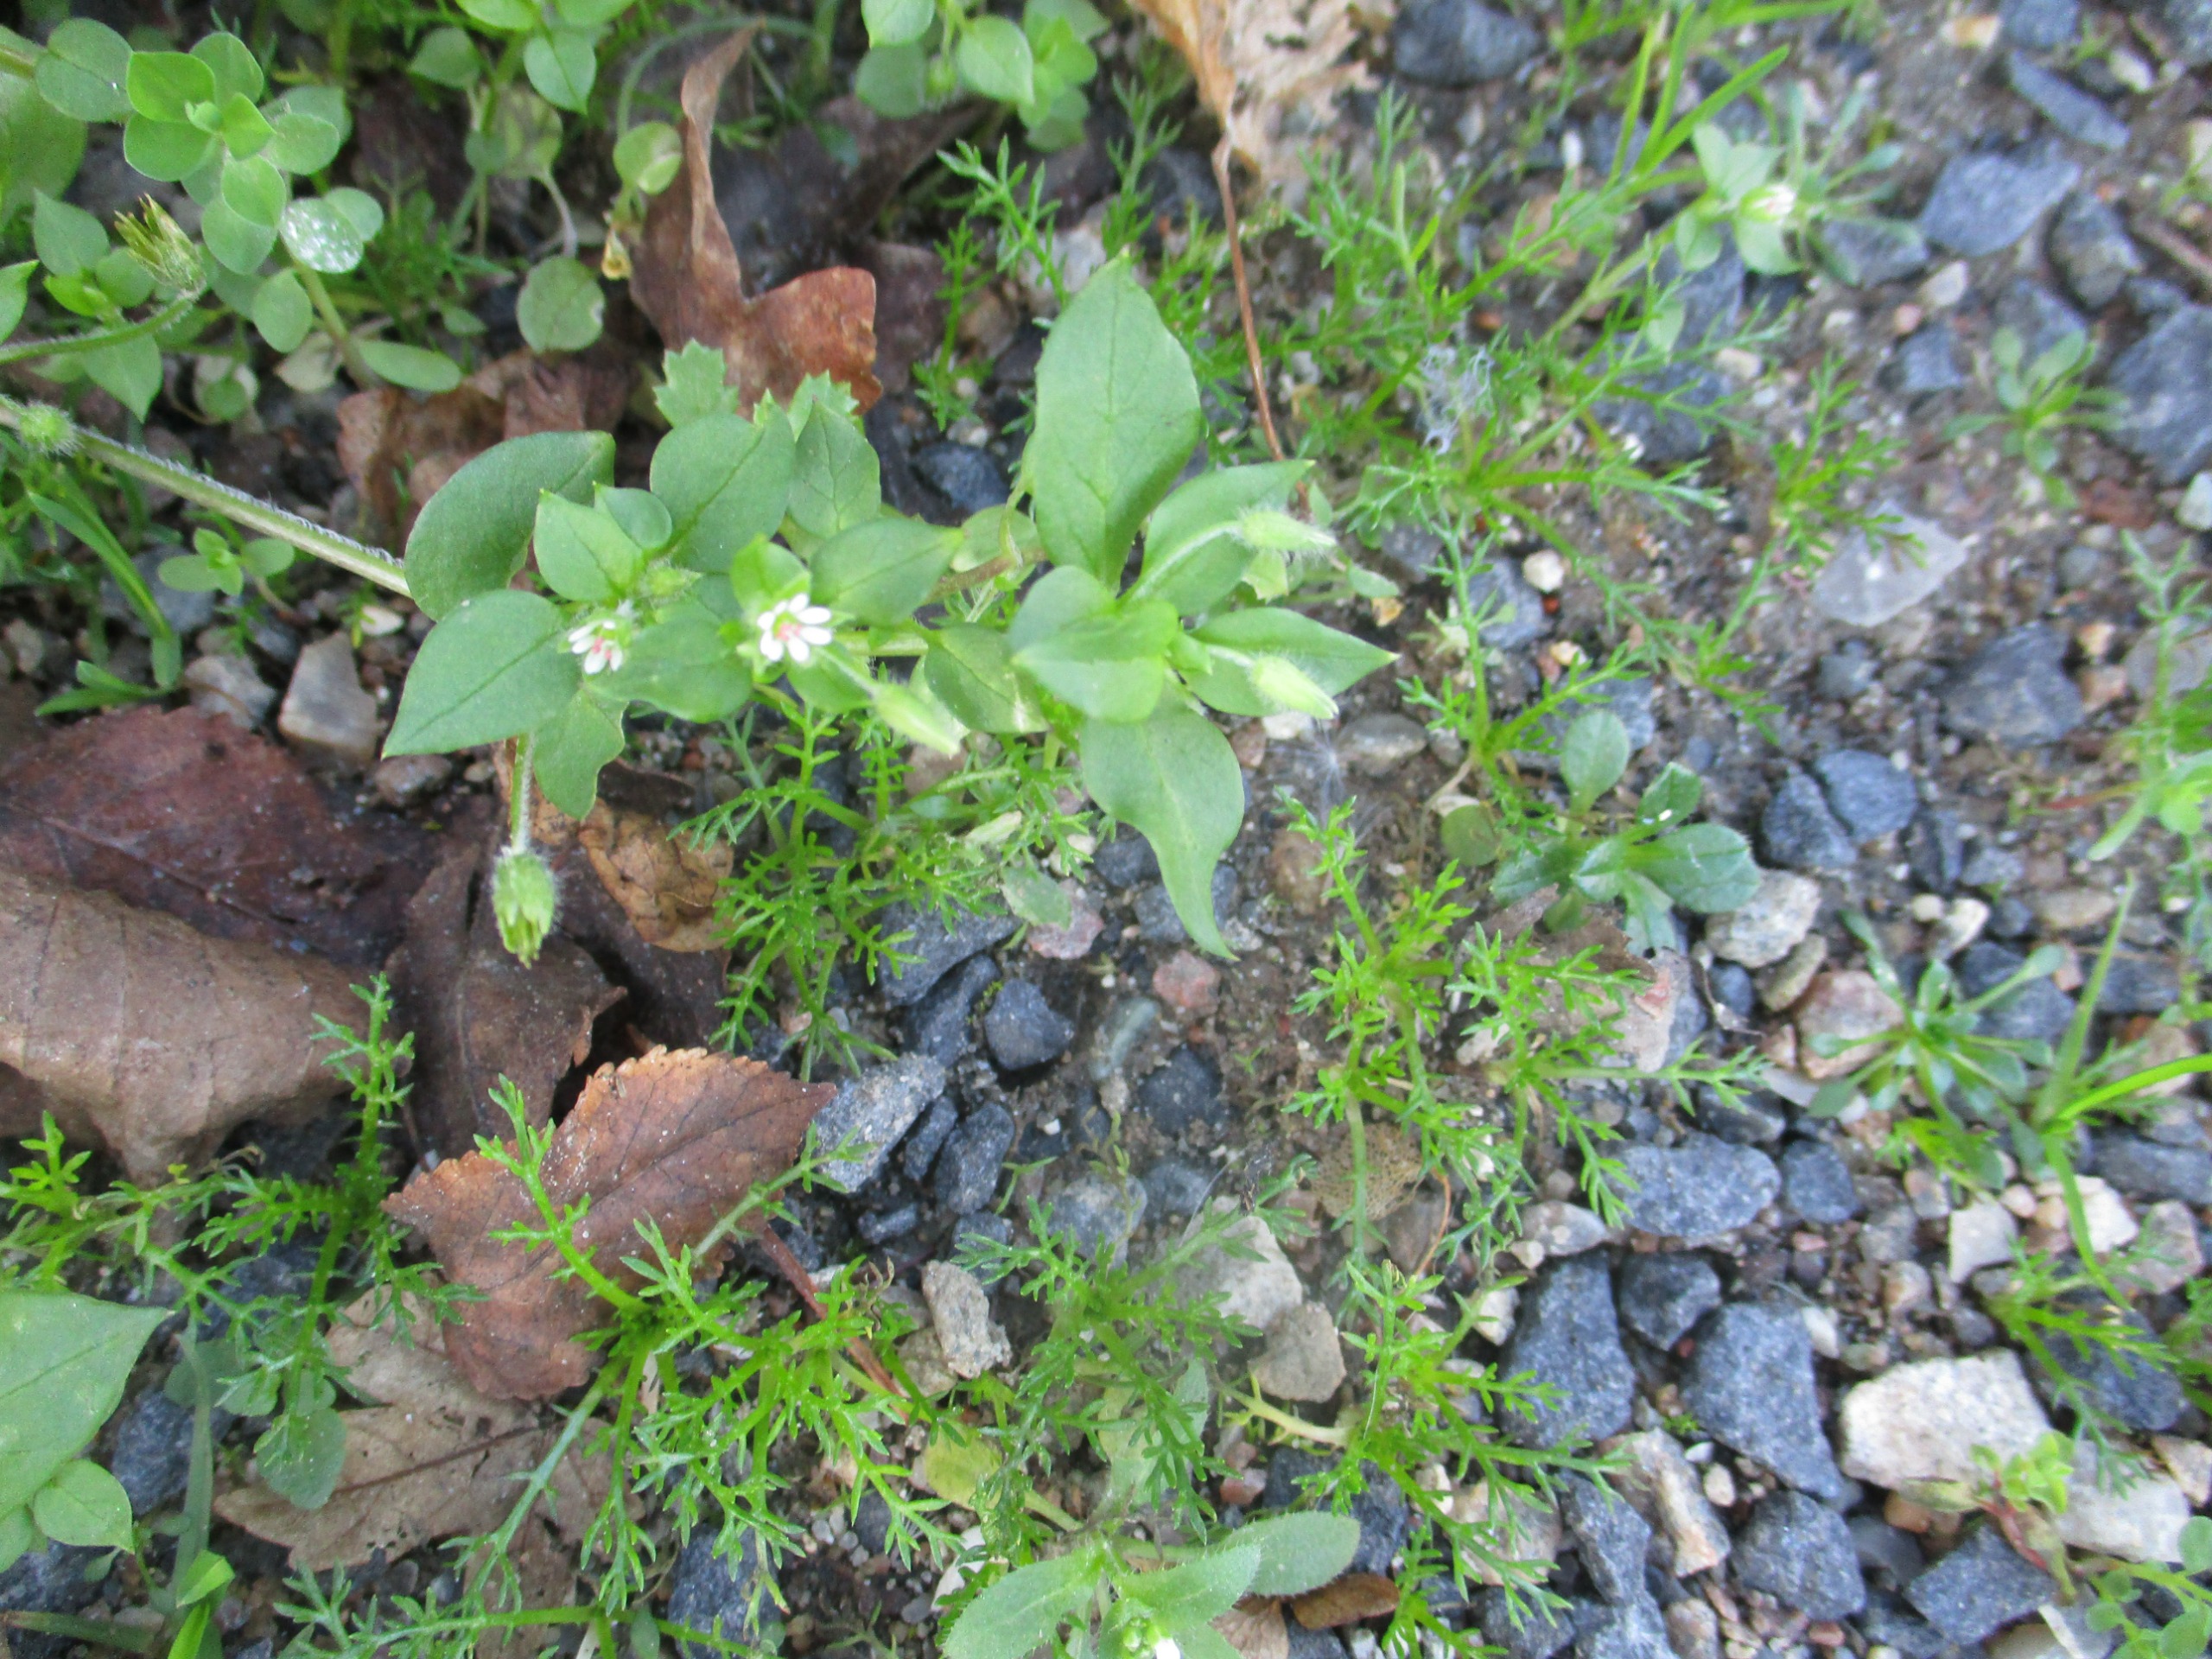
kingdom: Plantae
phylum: Tracheophyta
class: Magnoliopsida
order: Caryophyllales
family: Caryophyllaceae
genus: Stellaria
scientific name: Stellaria media
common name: Almindelig fuglegræs
